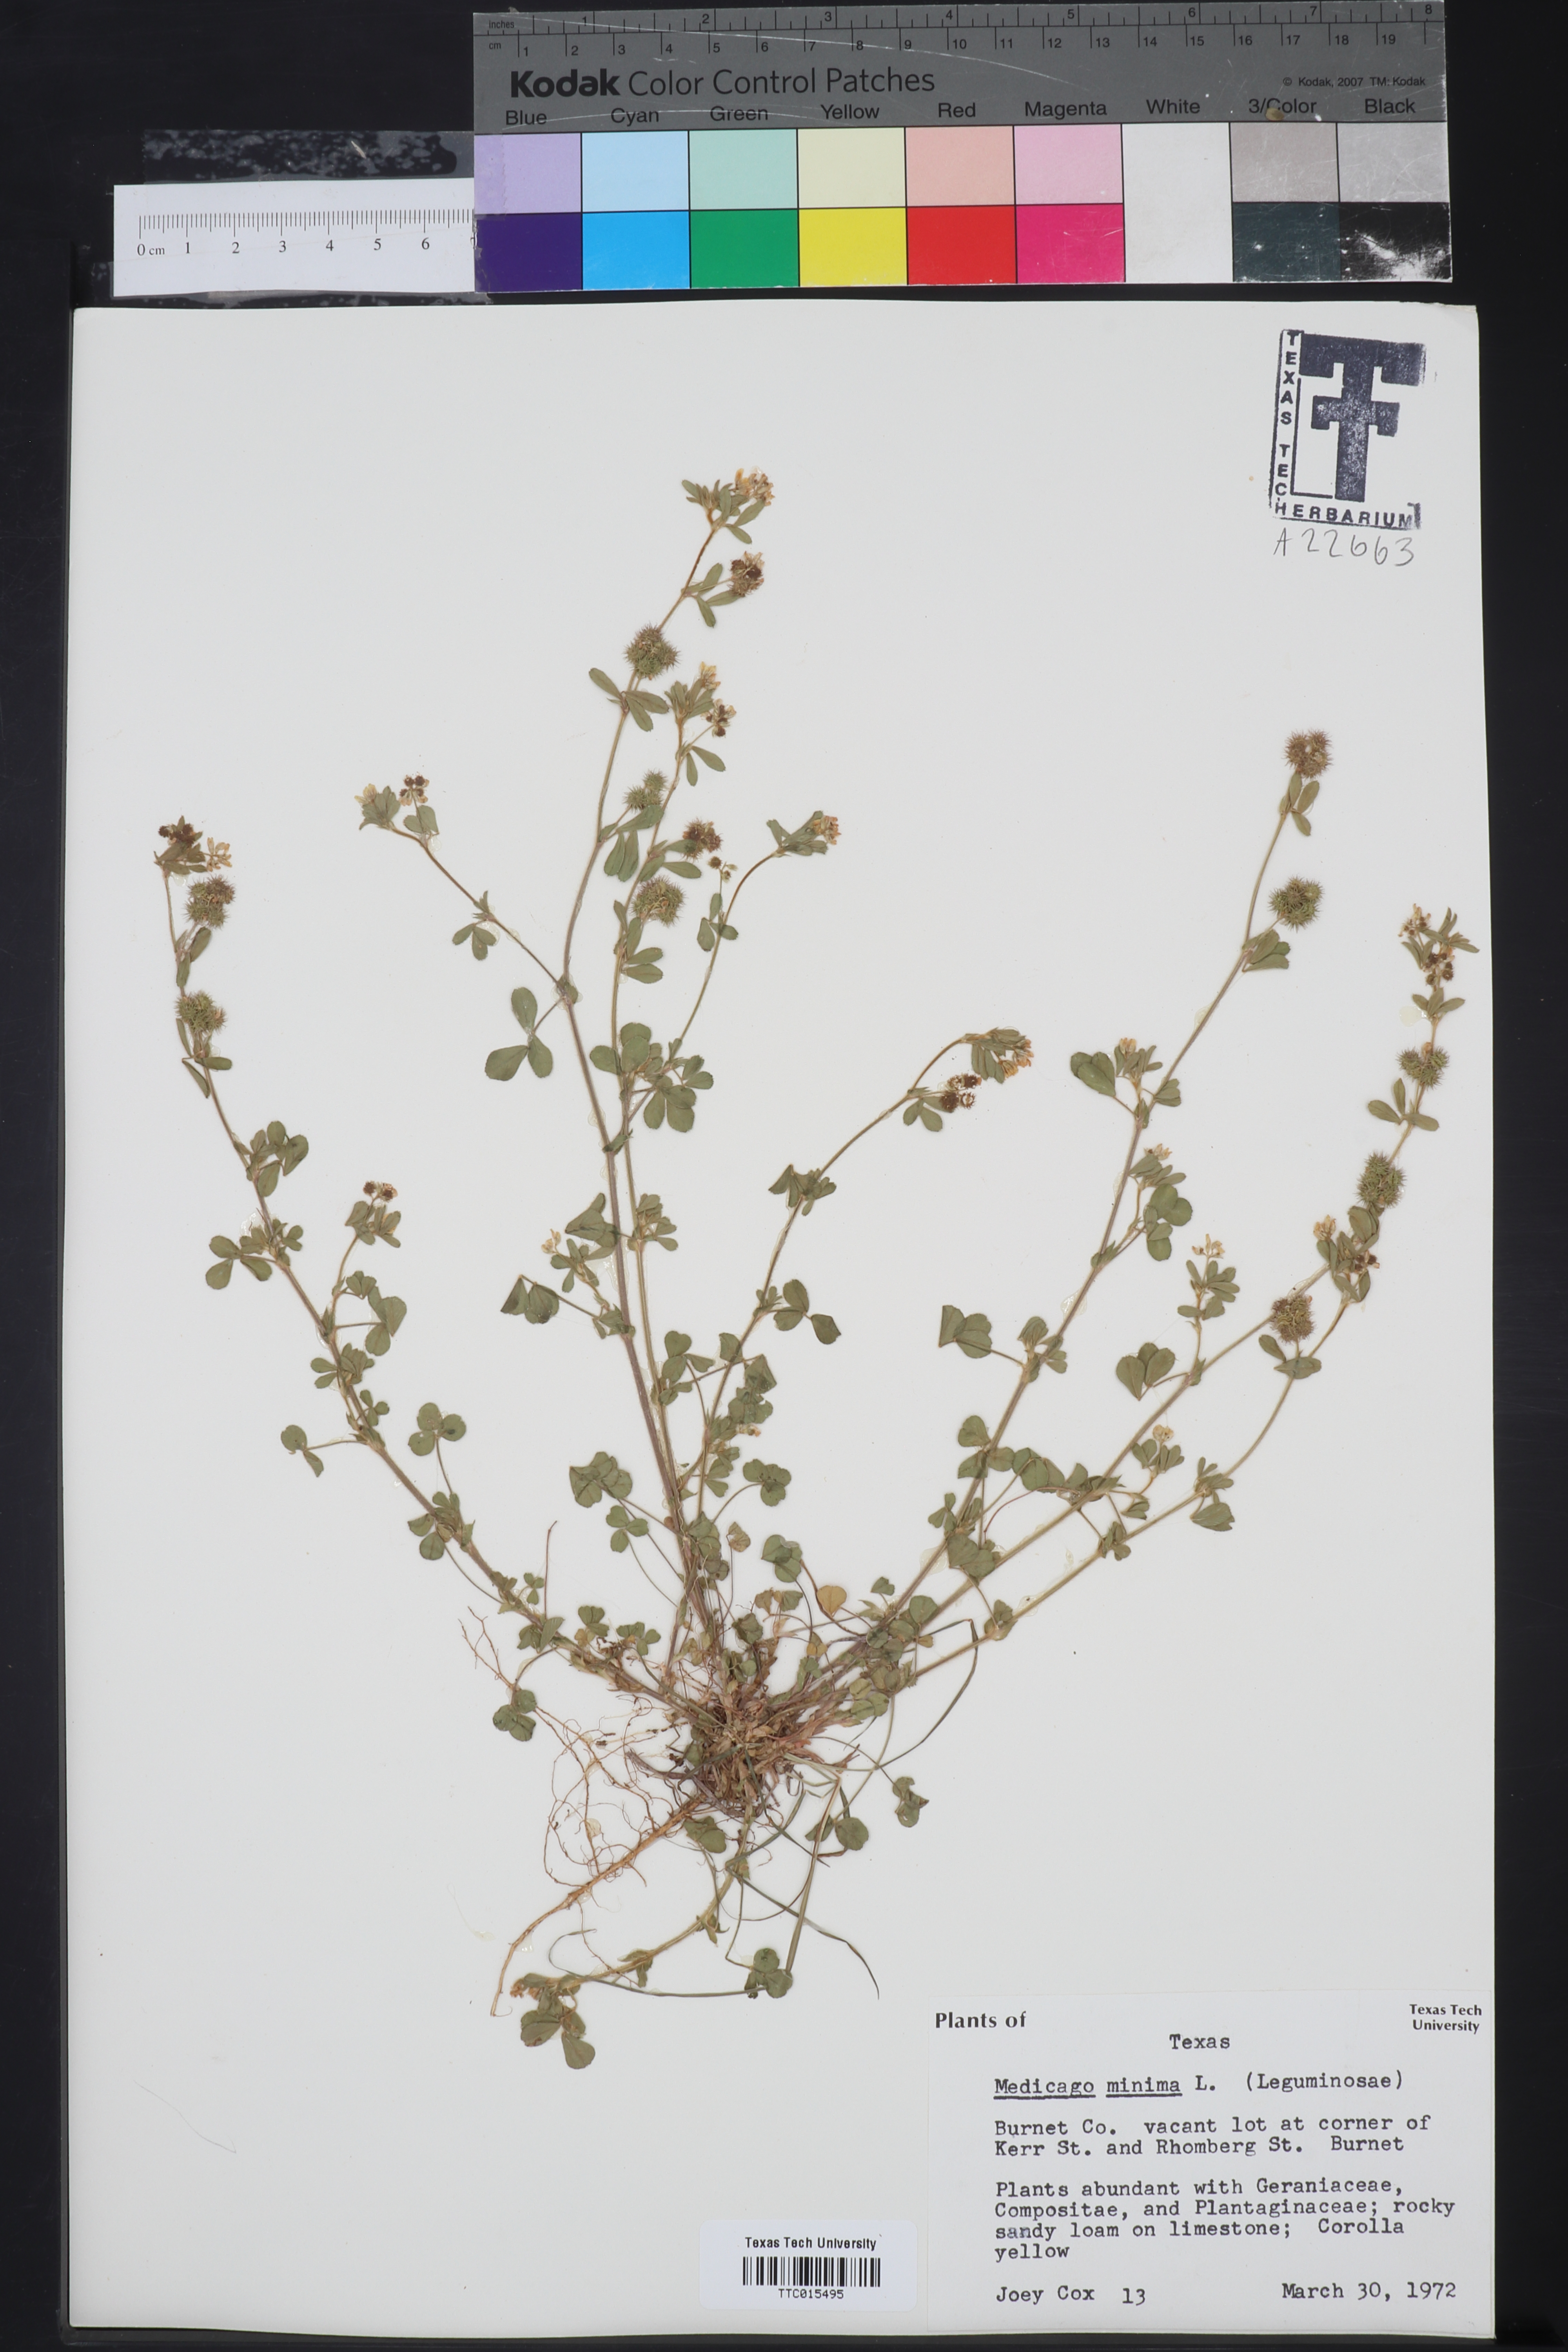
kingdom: Plantae
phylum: Tracheophyta
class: Magnoliopsida
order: Fabales
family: Fabaceae
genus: Medicago
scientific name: Medicago lupulina
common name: Black medick
